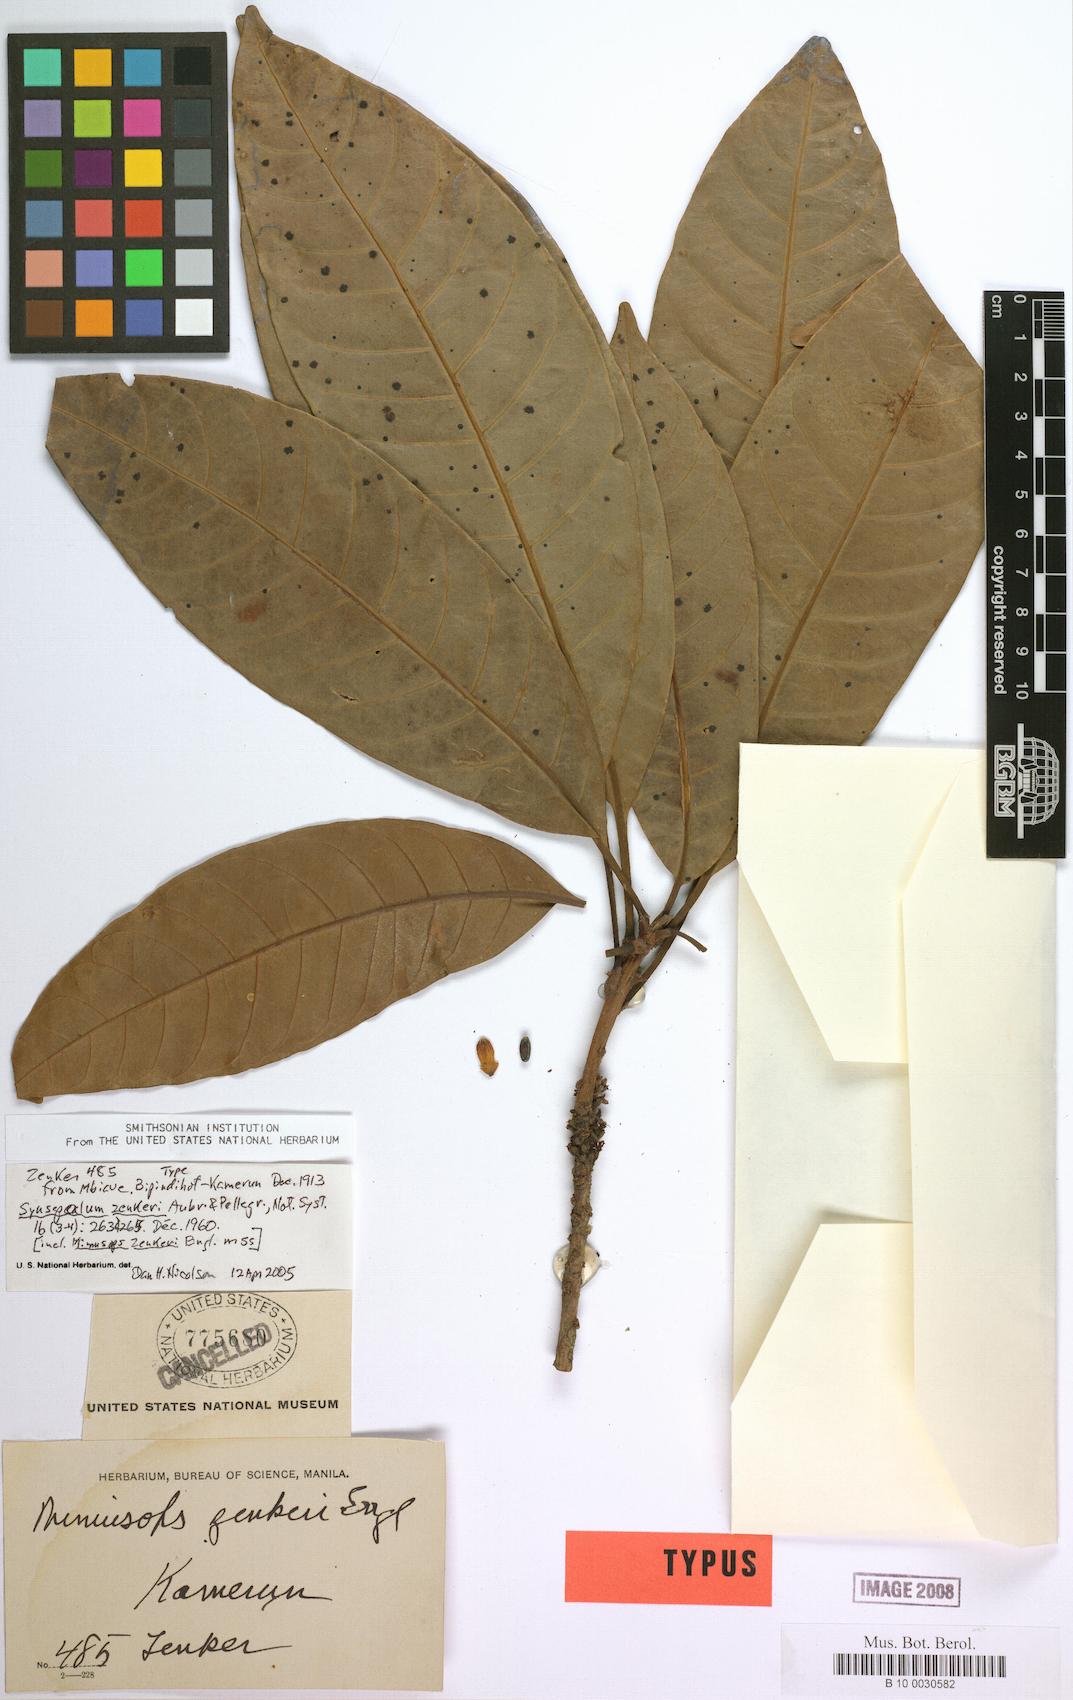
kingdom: Plantae
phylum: Tracheophyta
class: Magnoliopsida
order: Ericales
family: Sapotaceae
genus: Synsepalum
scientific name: Synsepalum zenkeri
